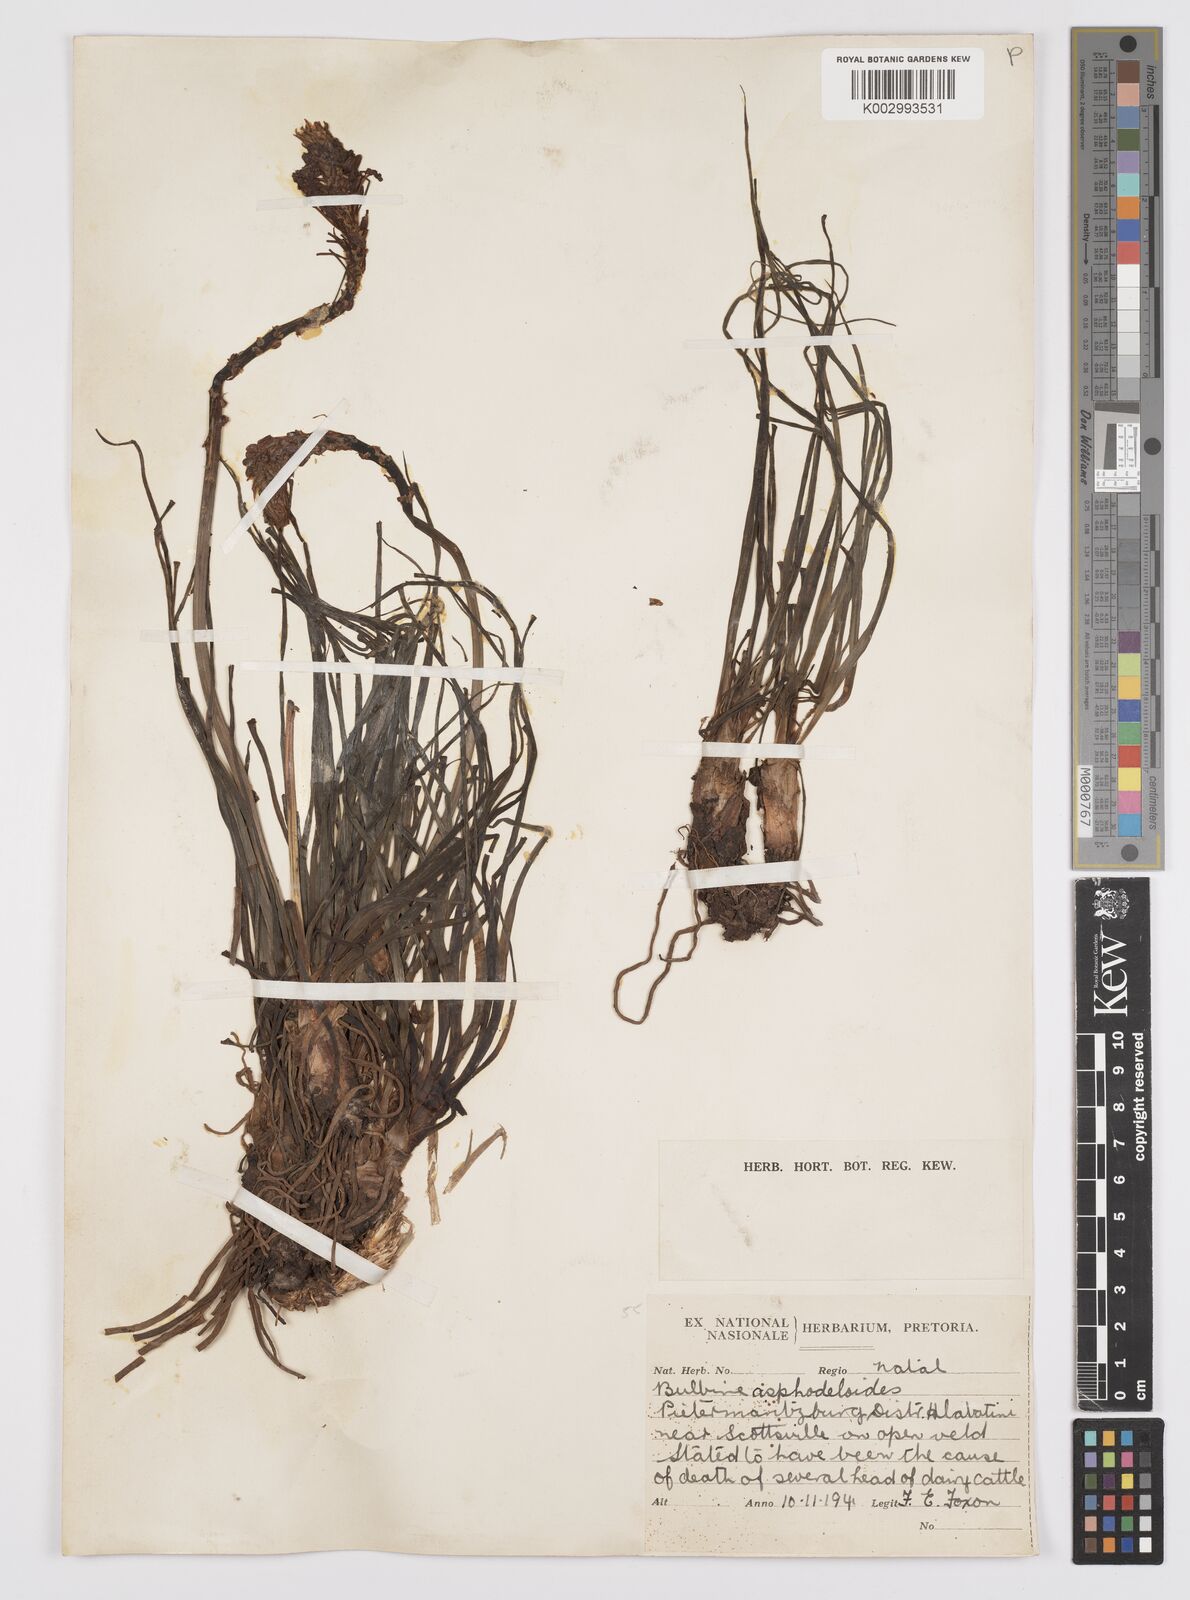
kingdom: Plantae
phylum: Tracheophyta
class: Liliopsida
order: Asparagales
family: Asphodelaceae
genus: Bulbine
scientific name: Bulbine asphodeloides
